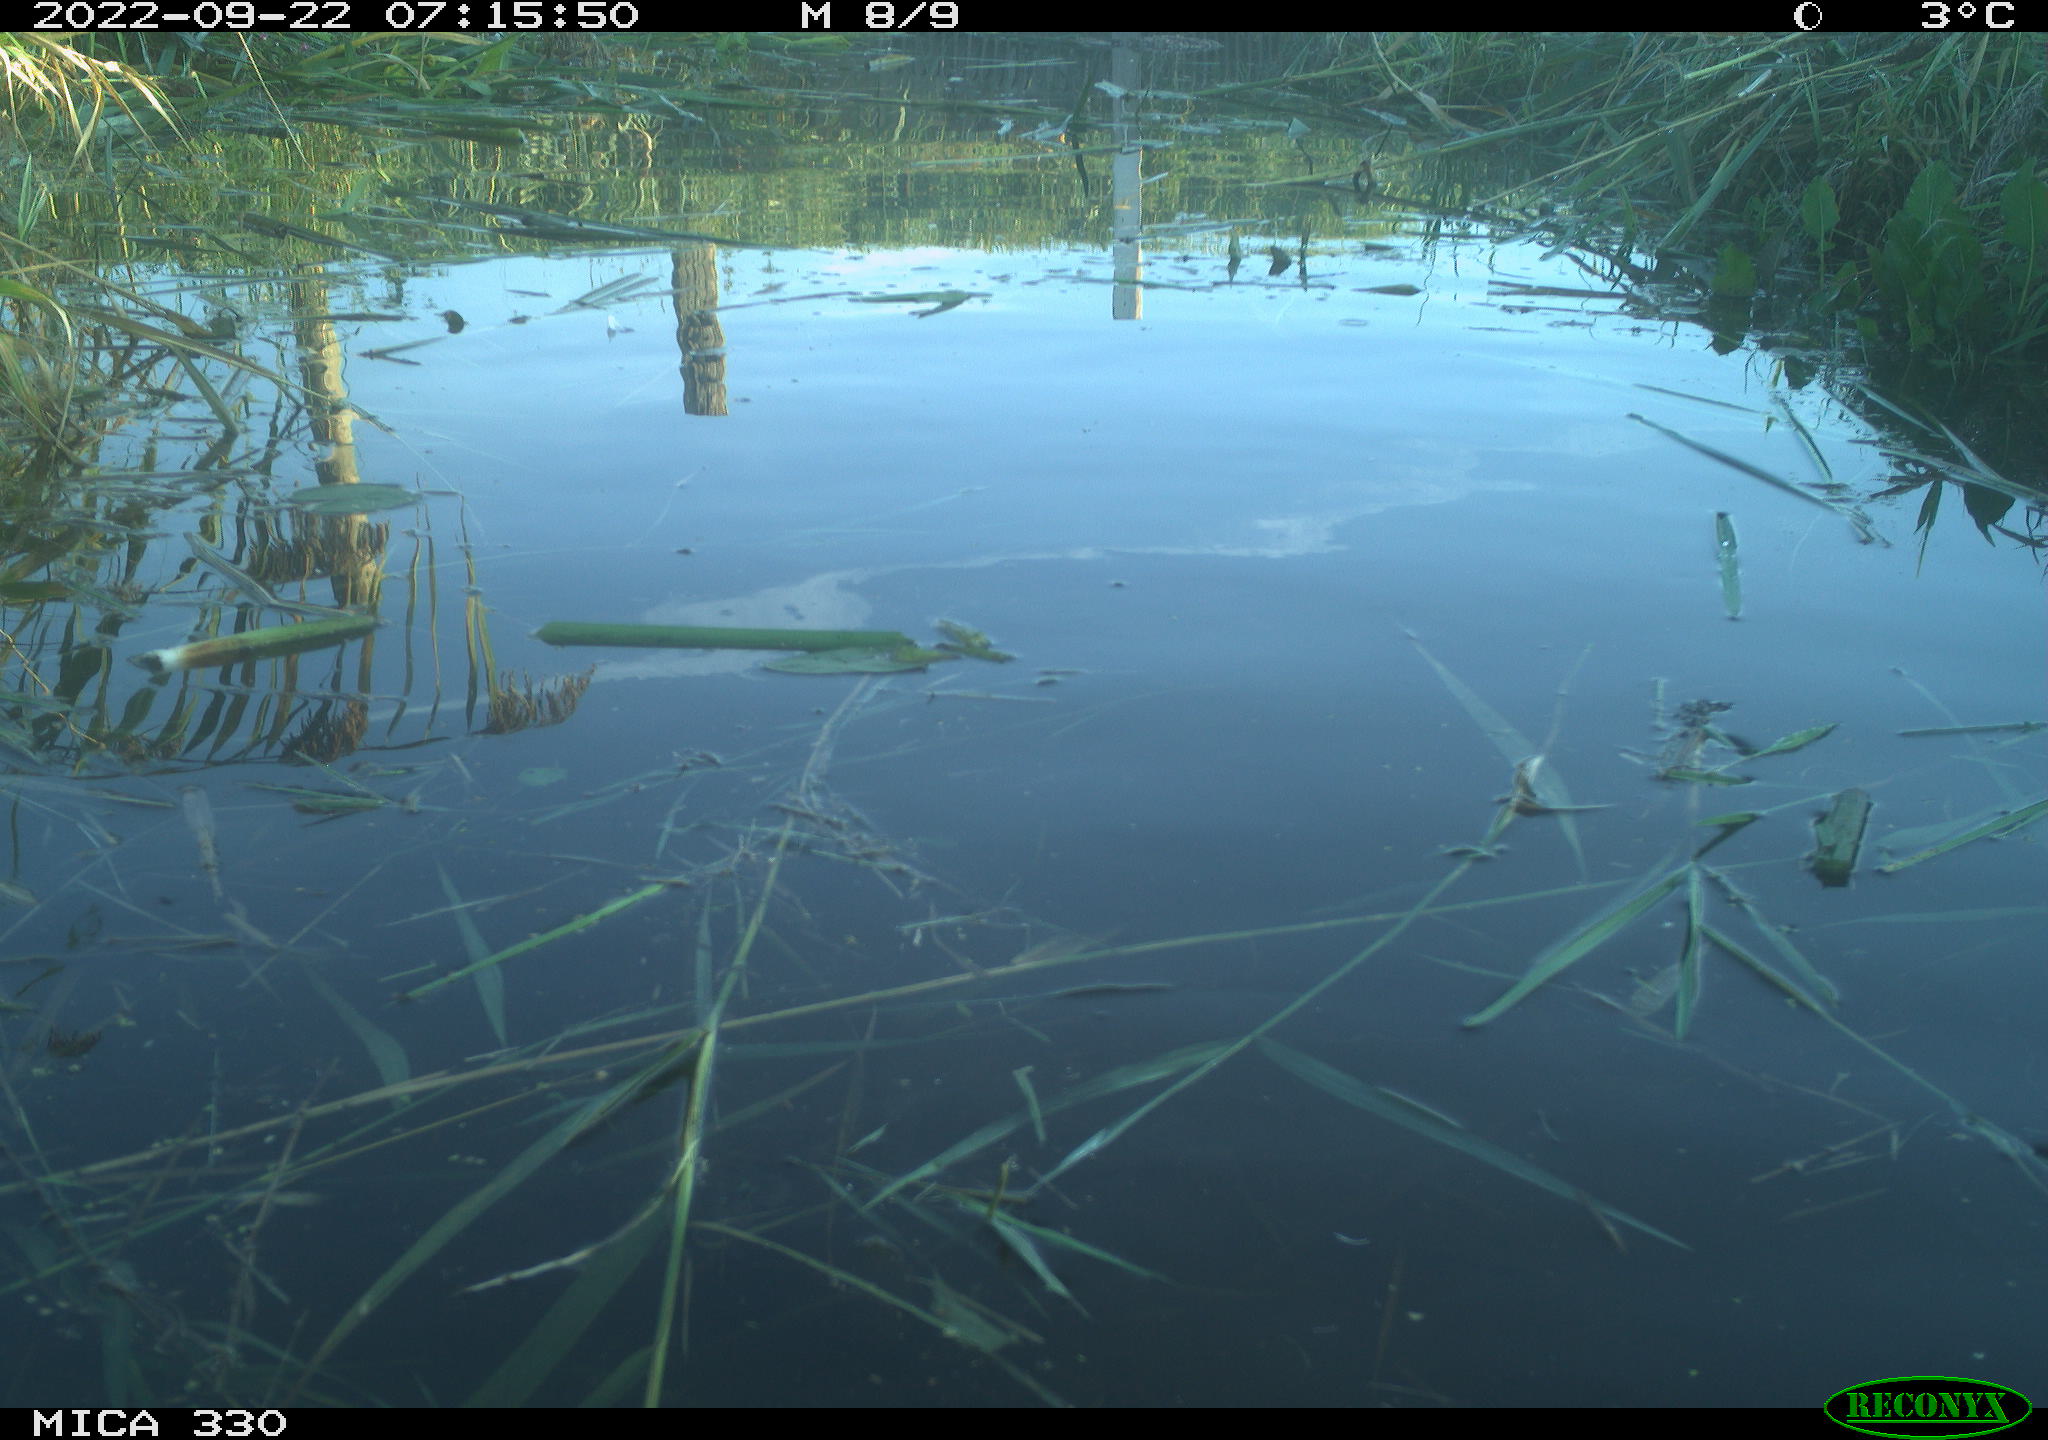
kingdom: Animalia
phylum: Chordata
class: Aves
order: Anseriformes
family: Anatidae
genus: Anas
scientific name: Anas platyrhynchos
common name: Mallard
